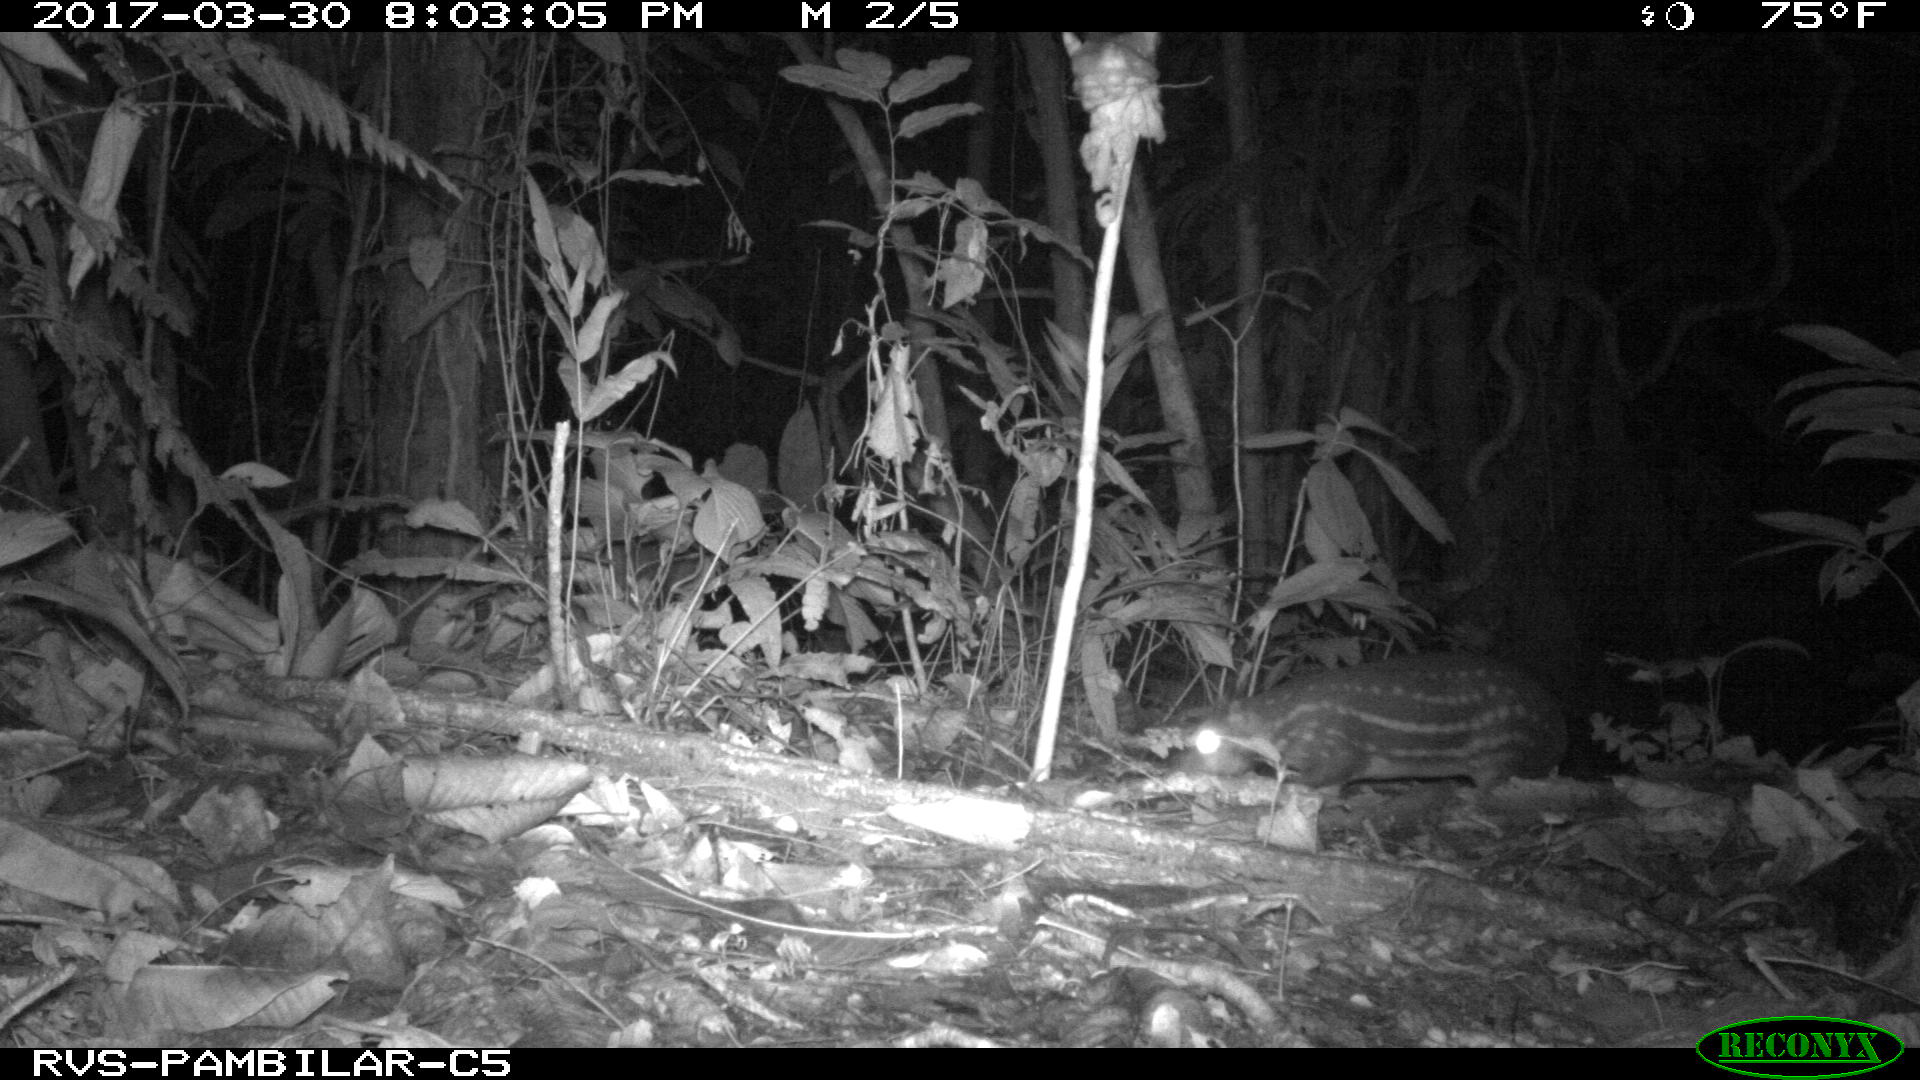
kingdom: Animalia
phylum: Chordata
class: Mammalia
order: Rodentia
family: Cuniculidae
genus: Cuniculus
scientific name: Cuniculus paca
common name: Lowland paca
